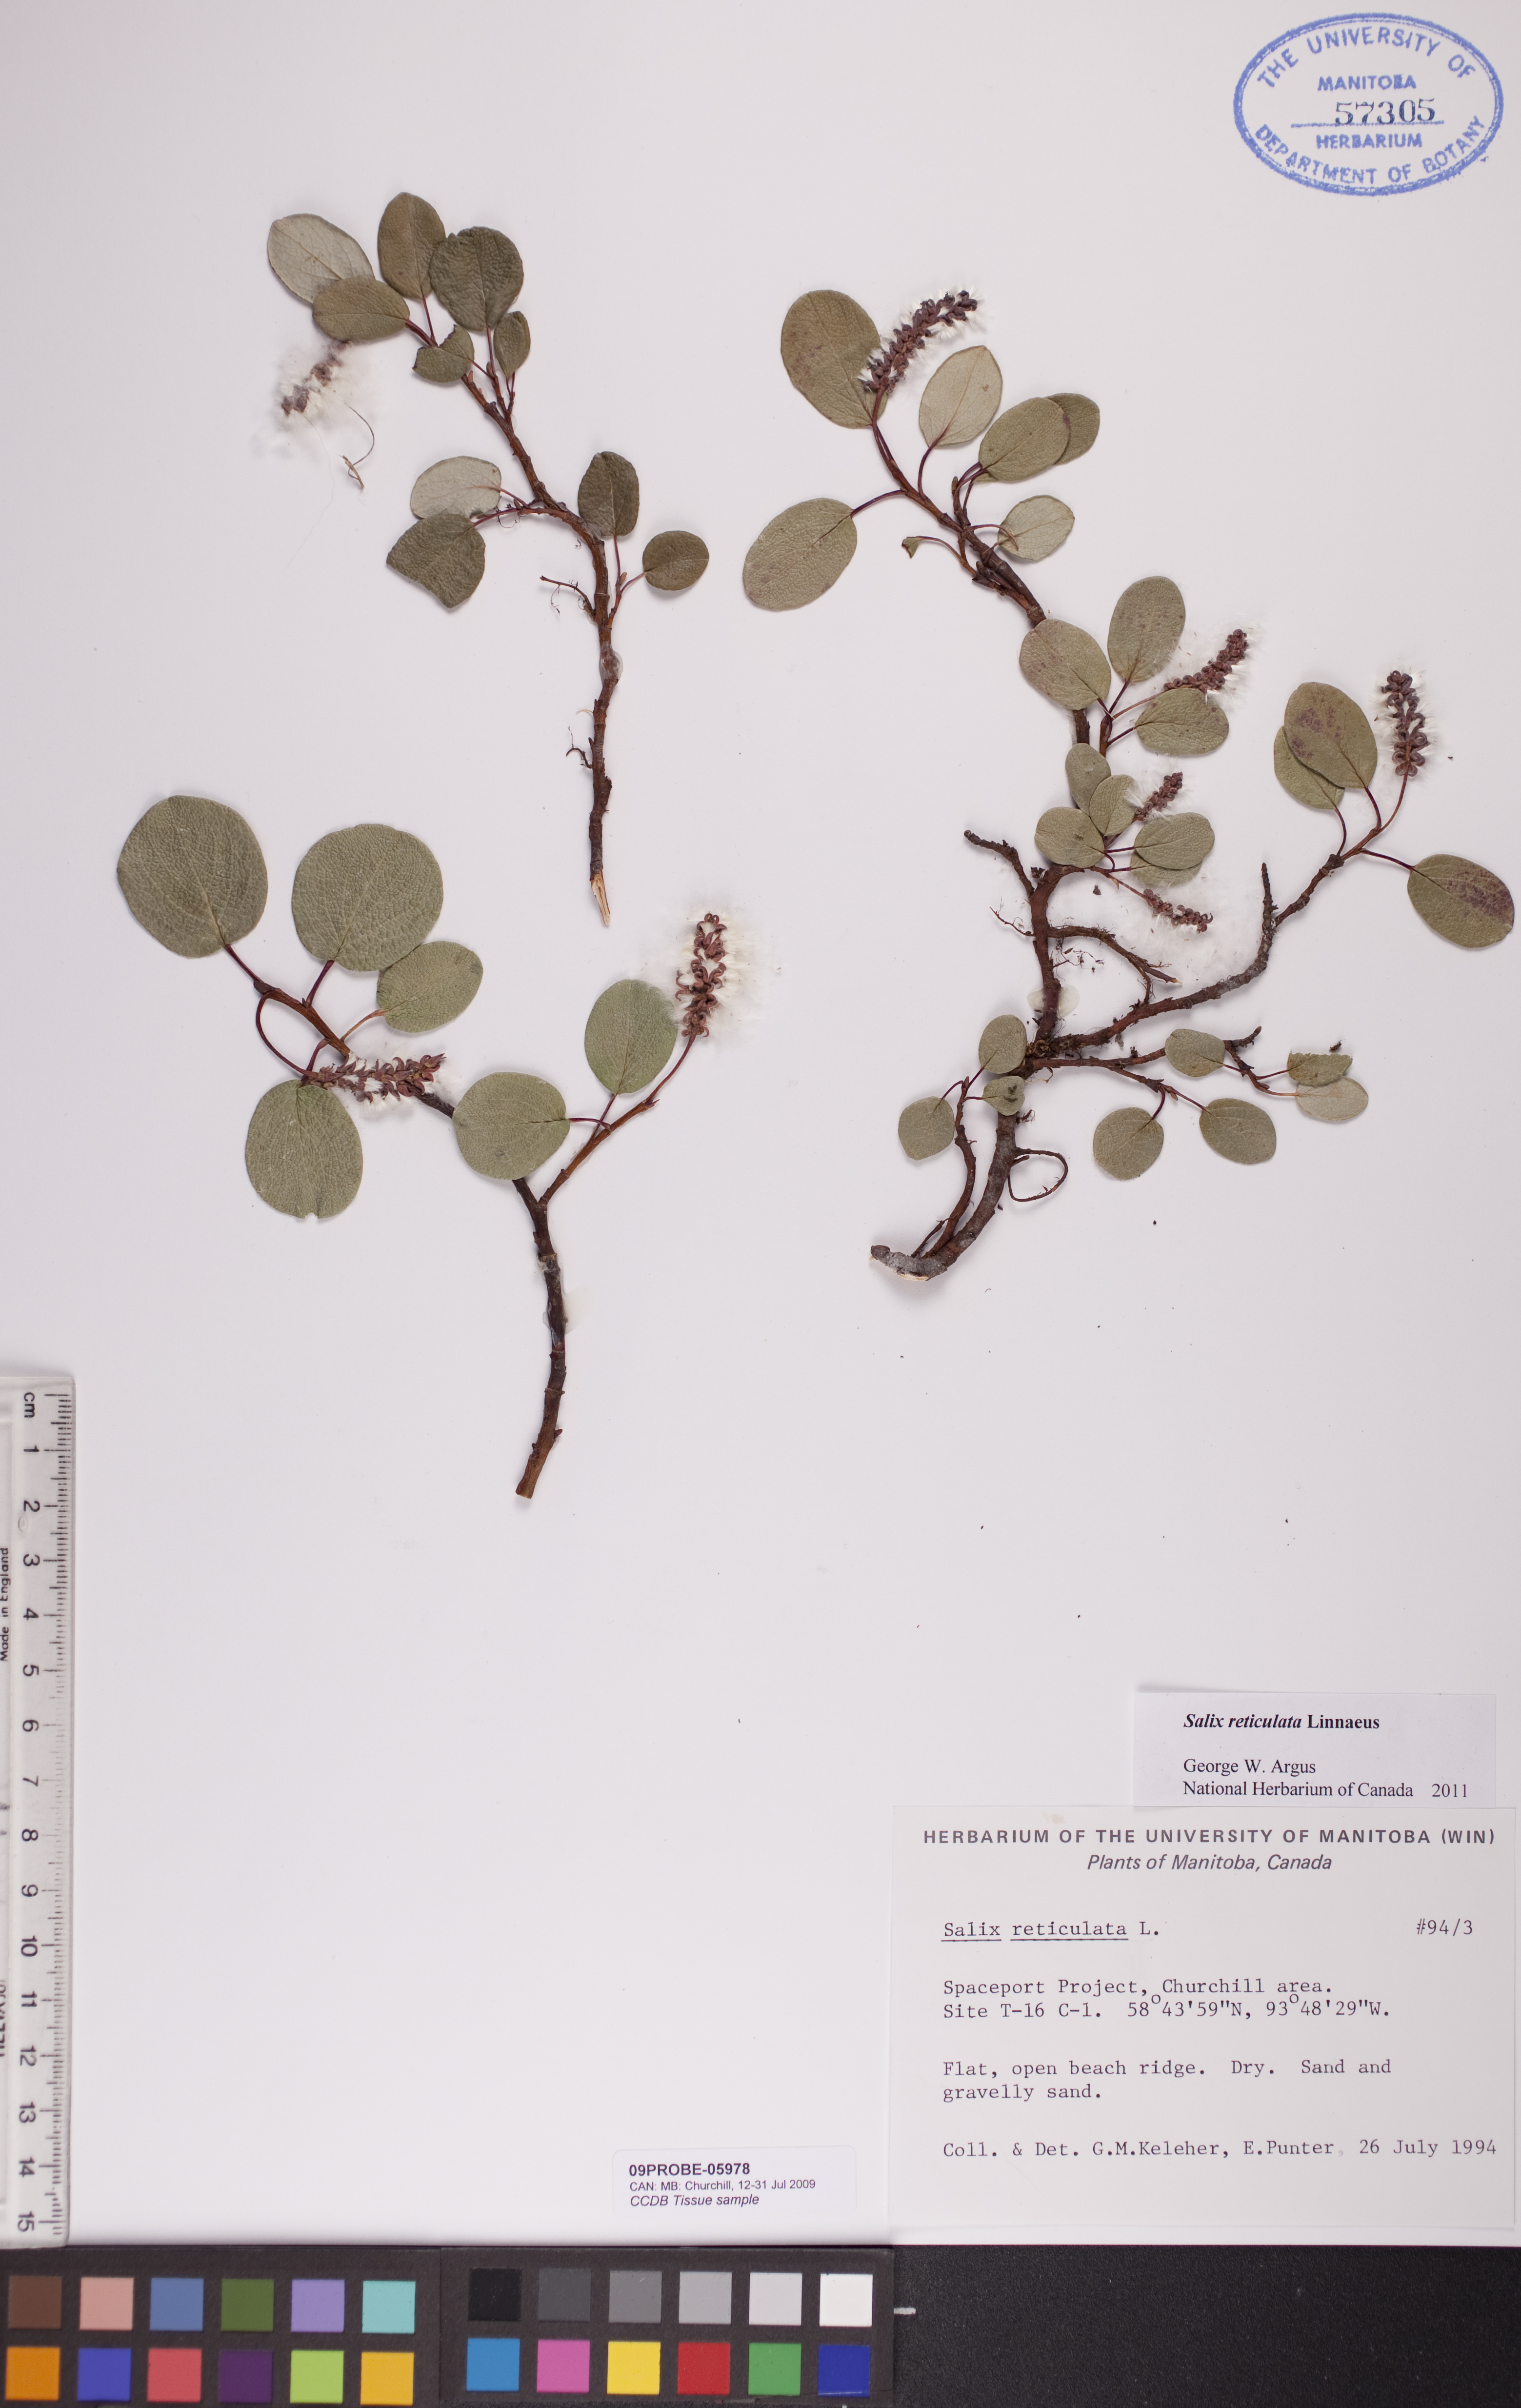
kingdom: Plantae
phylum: Tracheophyta
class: Magnoliopsida
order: Malpighiales
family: Salicaceae
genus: Salix
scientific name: Salix reticulata
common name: Net-leaved willow
